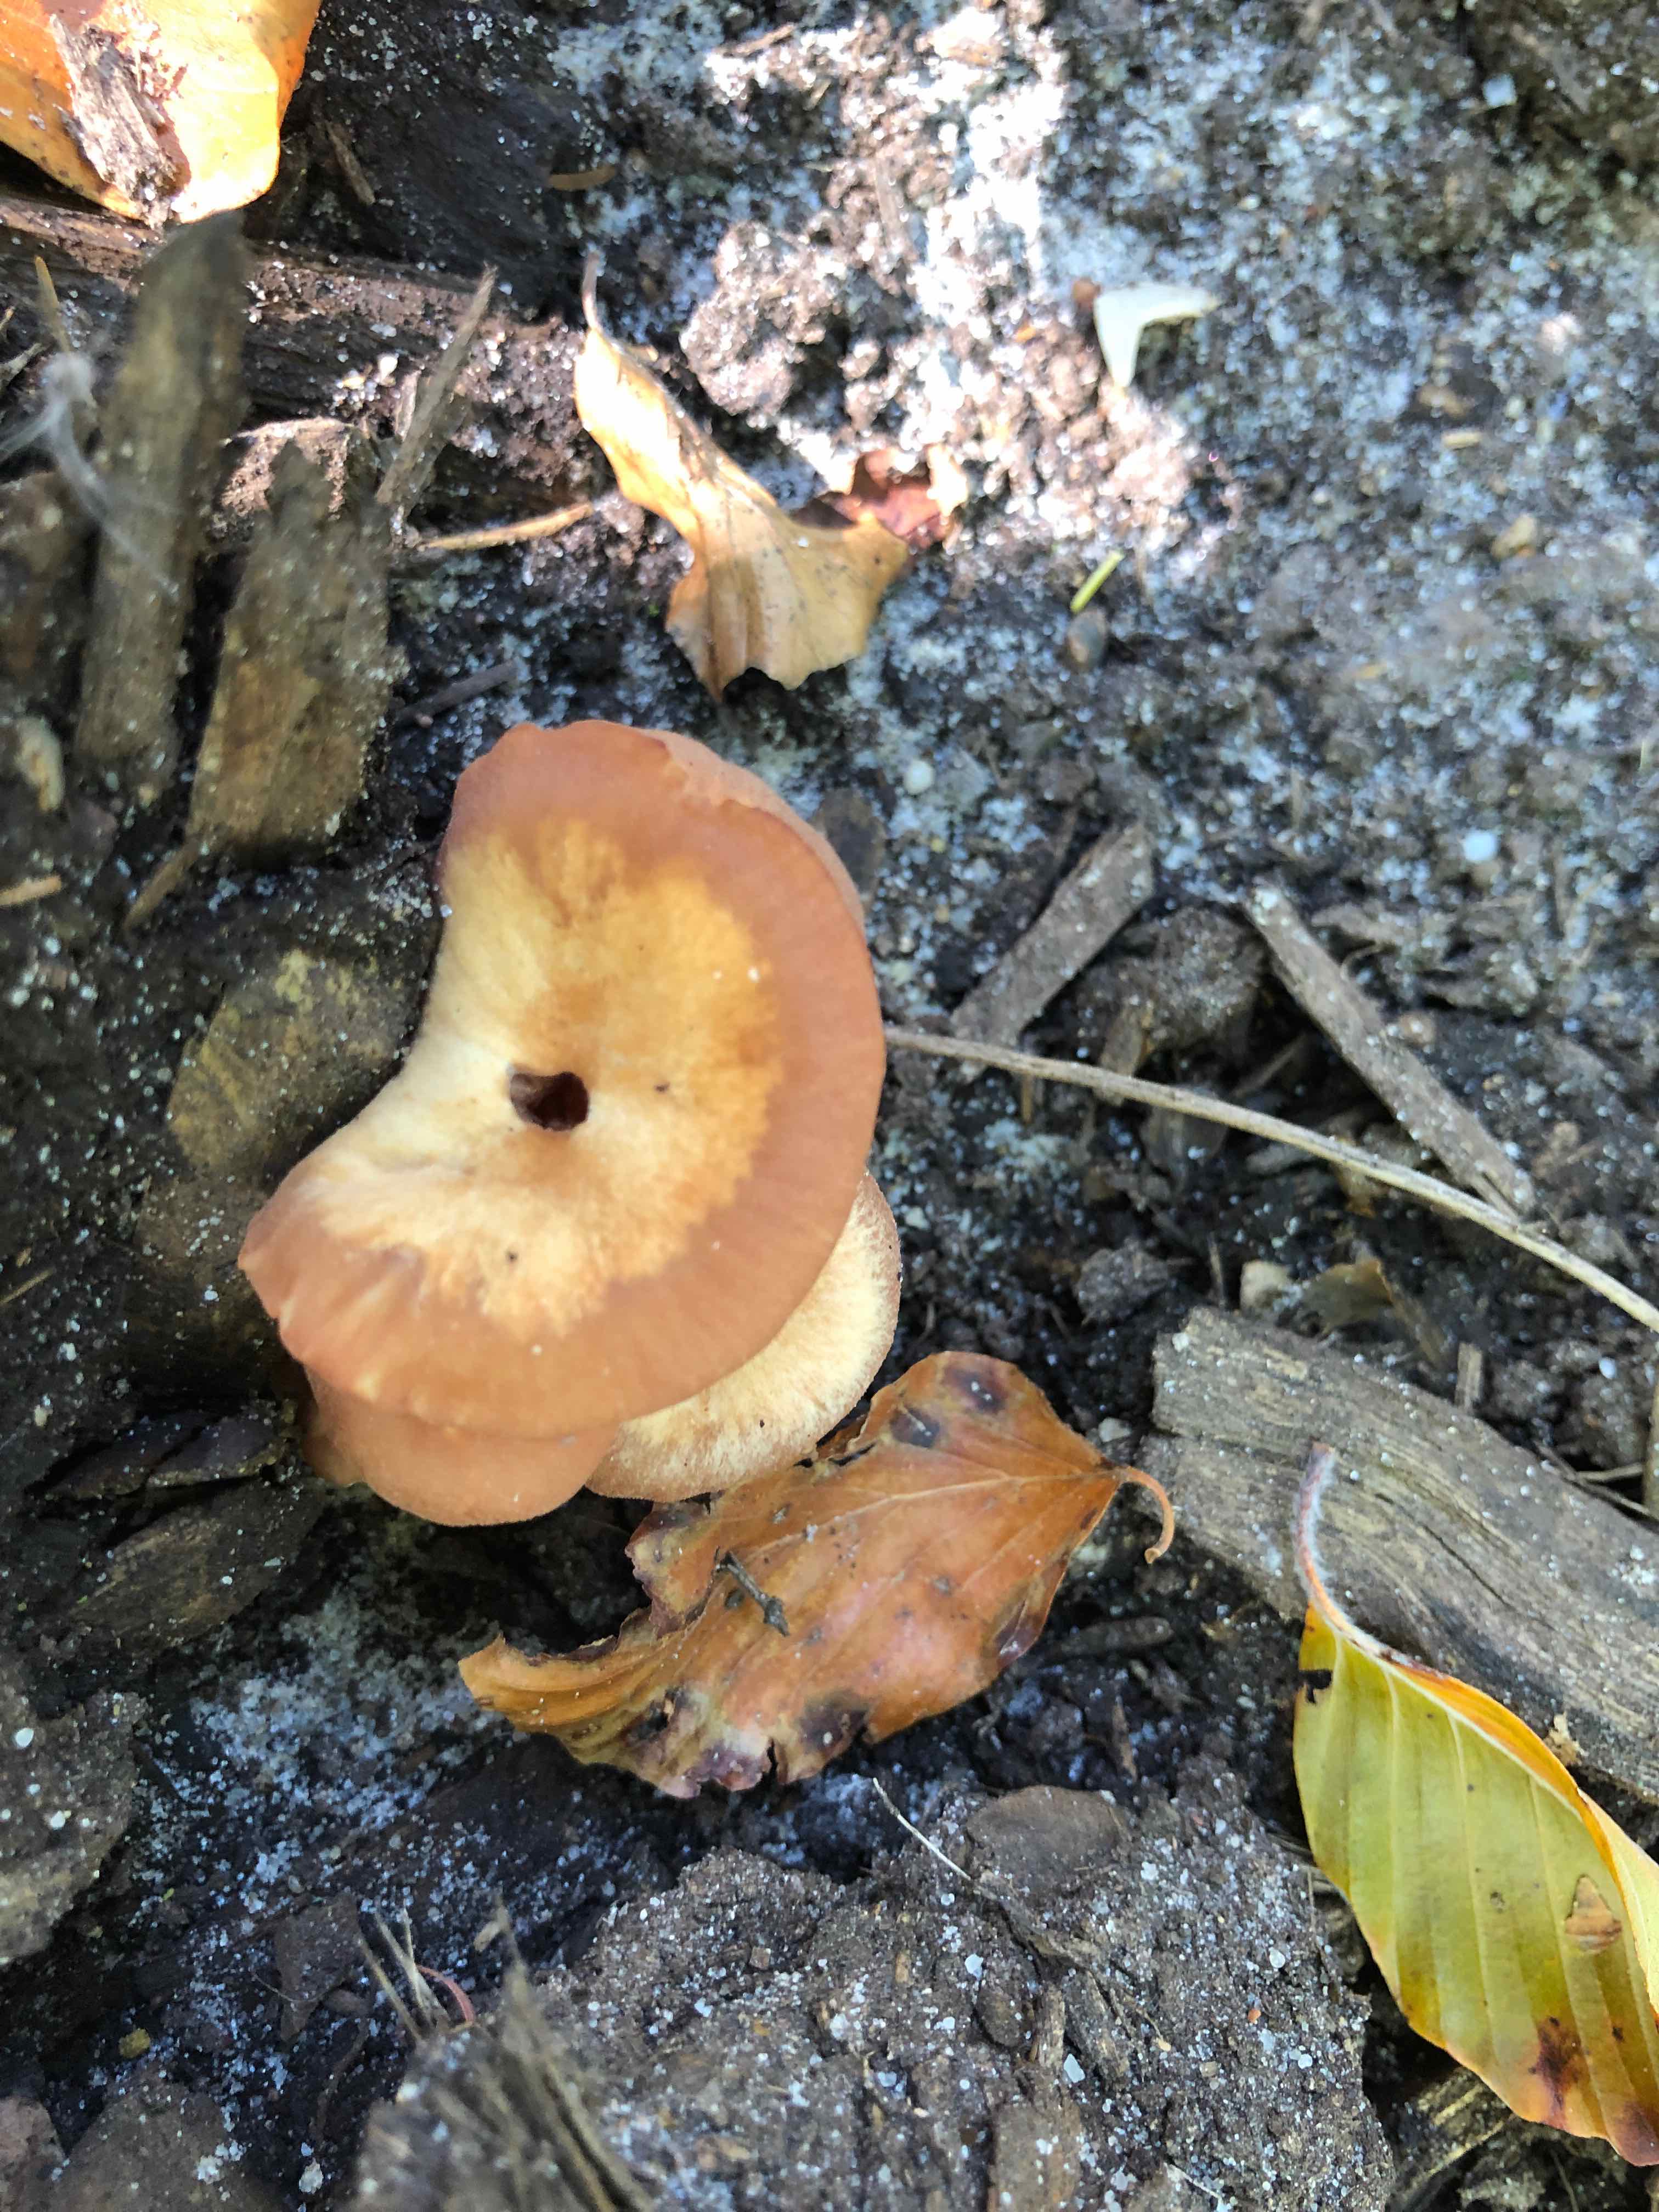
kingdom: Fungi
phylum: Basidiomycota
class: Agaricomycetes
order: Agaricales
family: Hydnangiaceae
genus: Laccaria
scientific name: Laccaria laccata
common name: rød ametysthat
